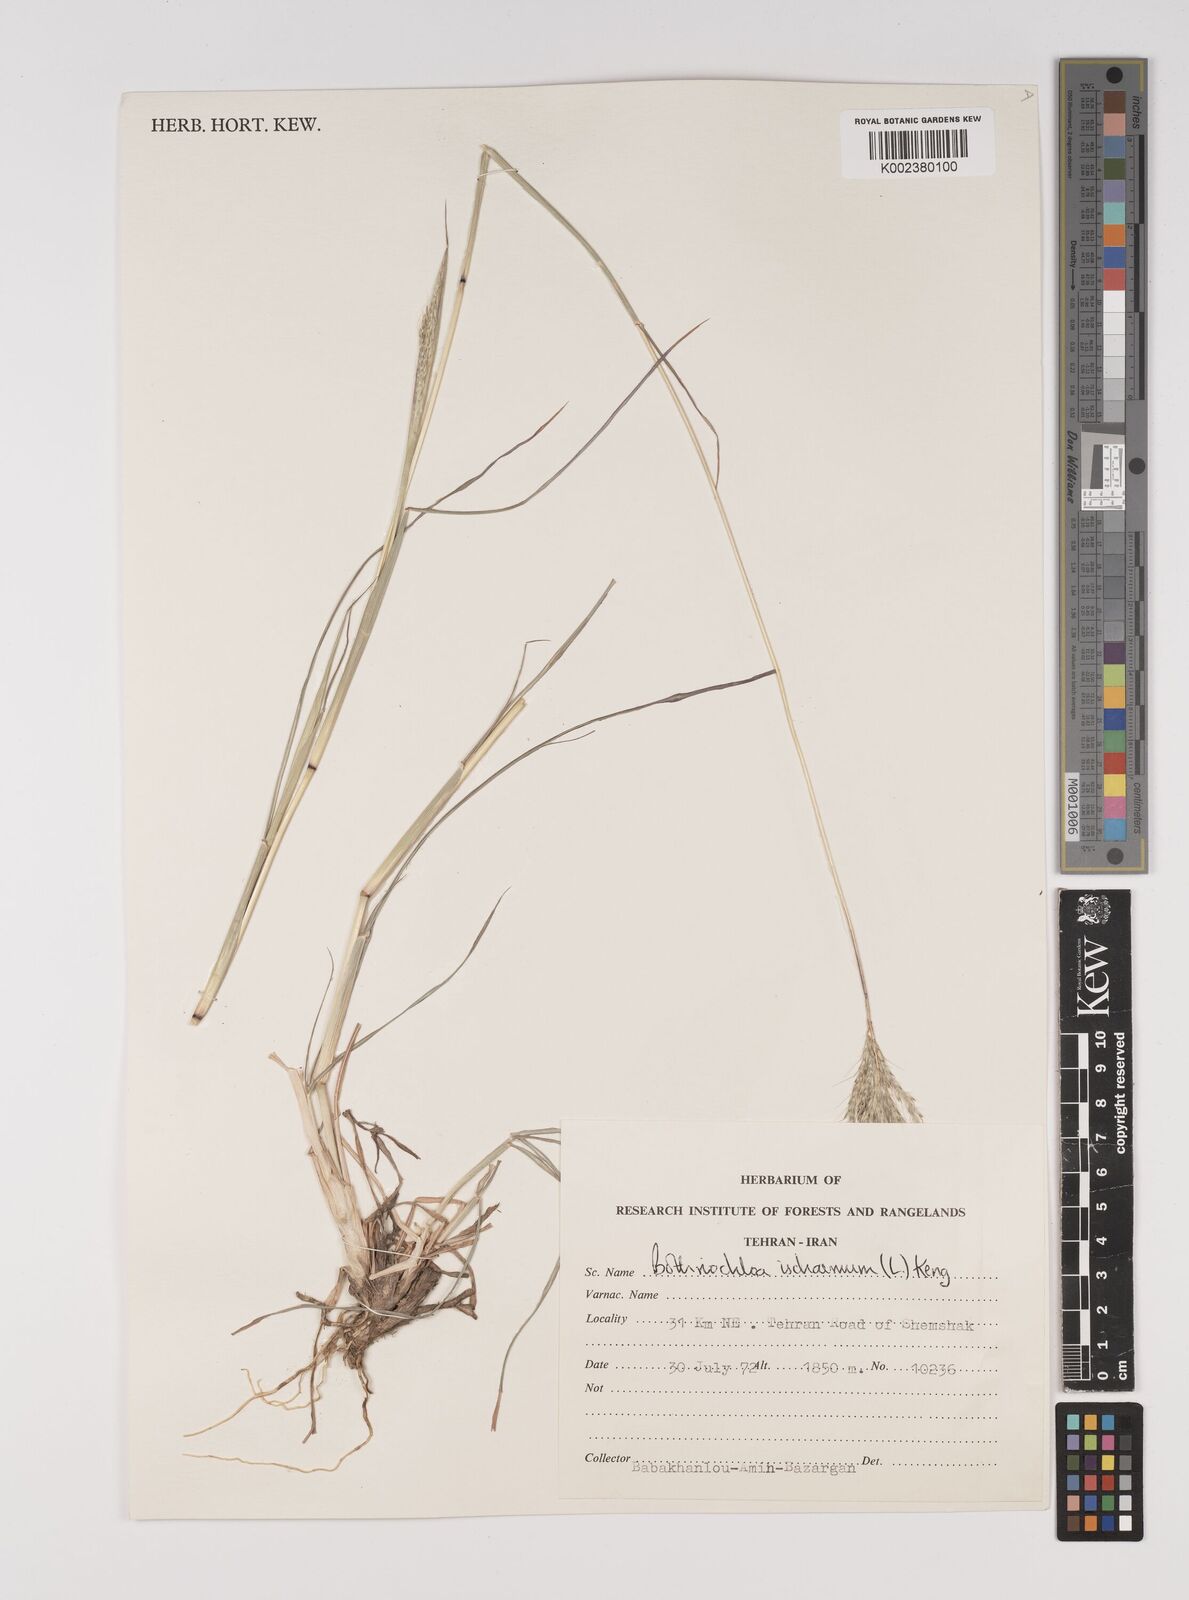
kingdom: Plantae
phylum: Tracheophyta
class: Liliopsida
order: Poales
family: Poaceae
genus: Bothriochloa
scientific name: Bothriochloa ischaemum
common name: Yellow bluestem
